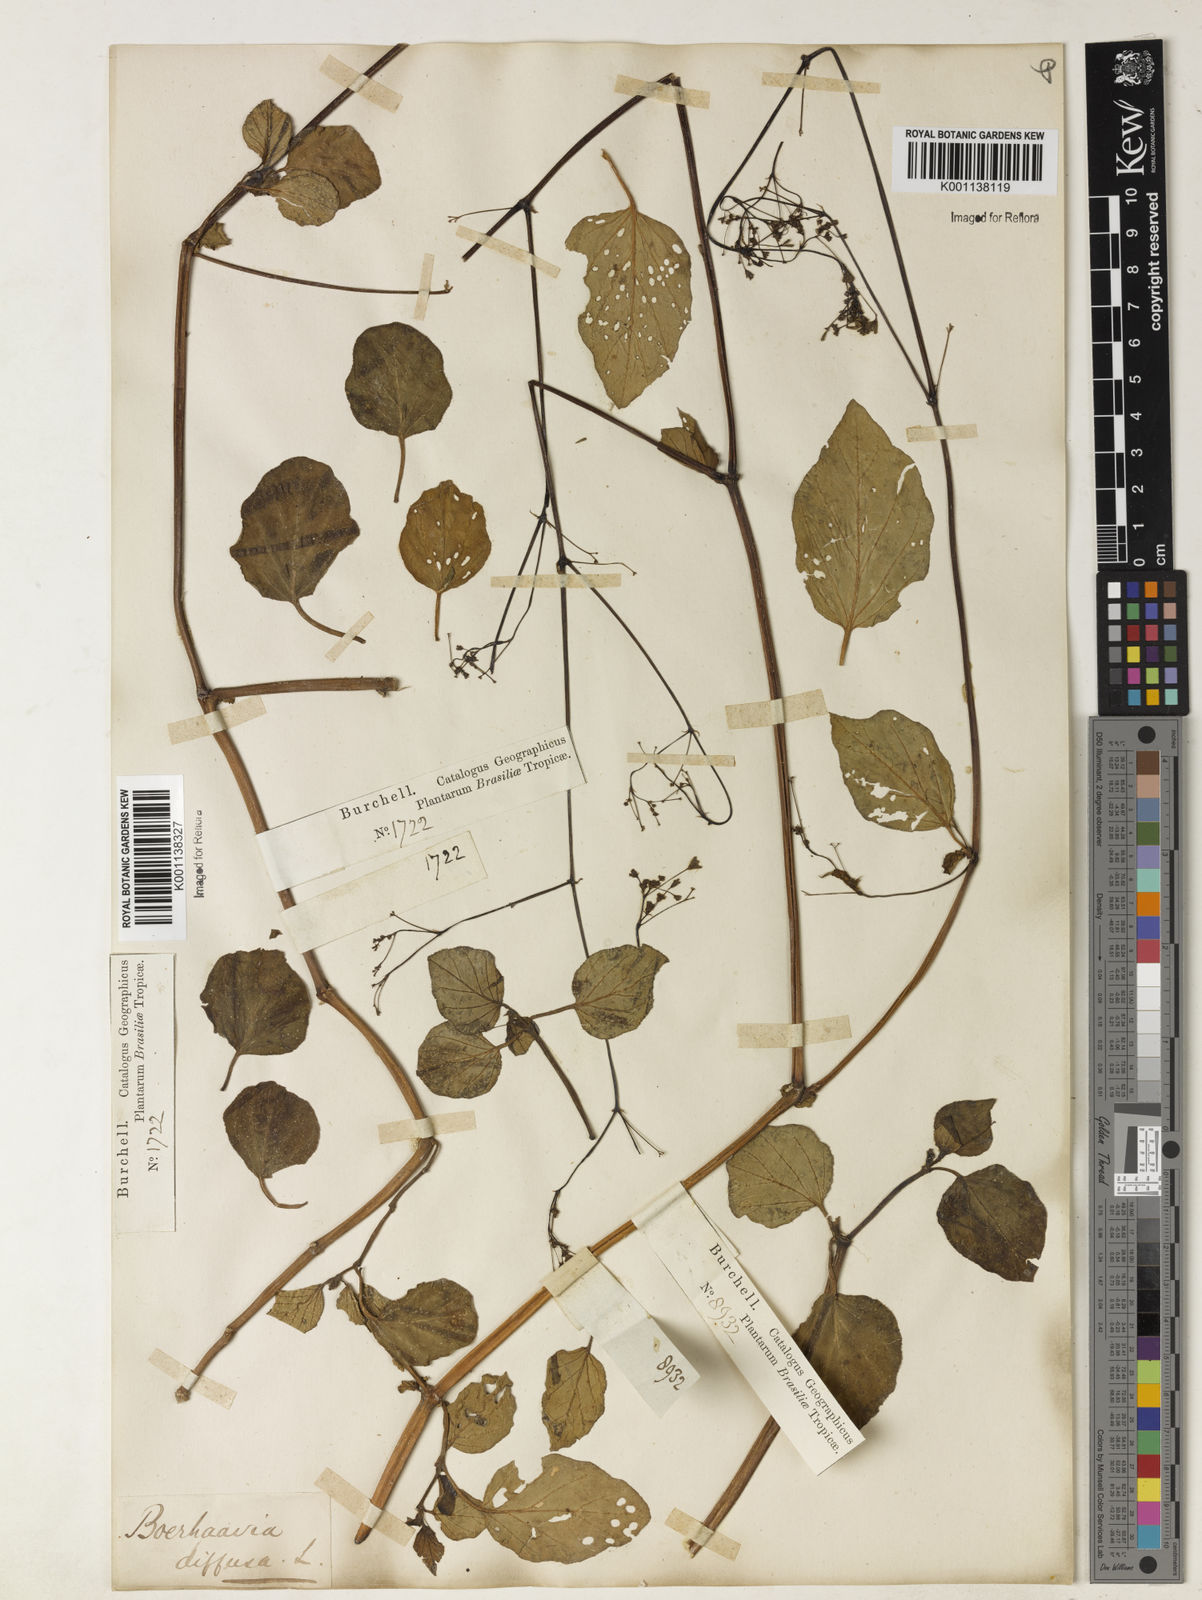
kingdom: Plantae
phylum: Tracheophyta
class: Magnoliopsida
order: Caryophyllales
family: Nyctaginaceae
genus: Boerhavia
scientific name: Boerhavia diffusa
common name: Red spiderling
